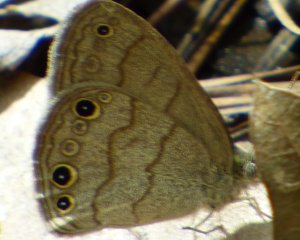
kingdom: Animalia
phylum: Arthropoda
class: Insecta
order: Lepidoptera
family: Nymphalidae
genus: Hermeuptychia
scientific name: Hermeuptychia hermes
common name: Carolina Satyr
